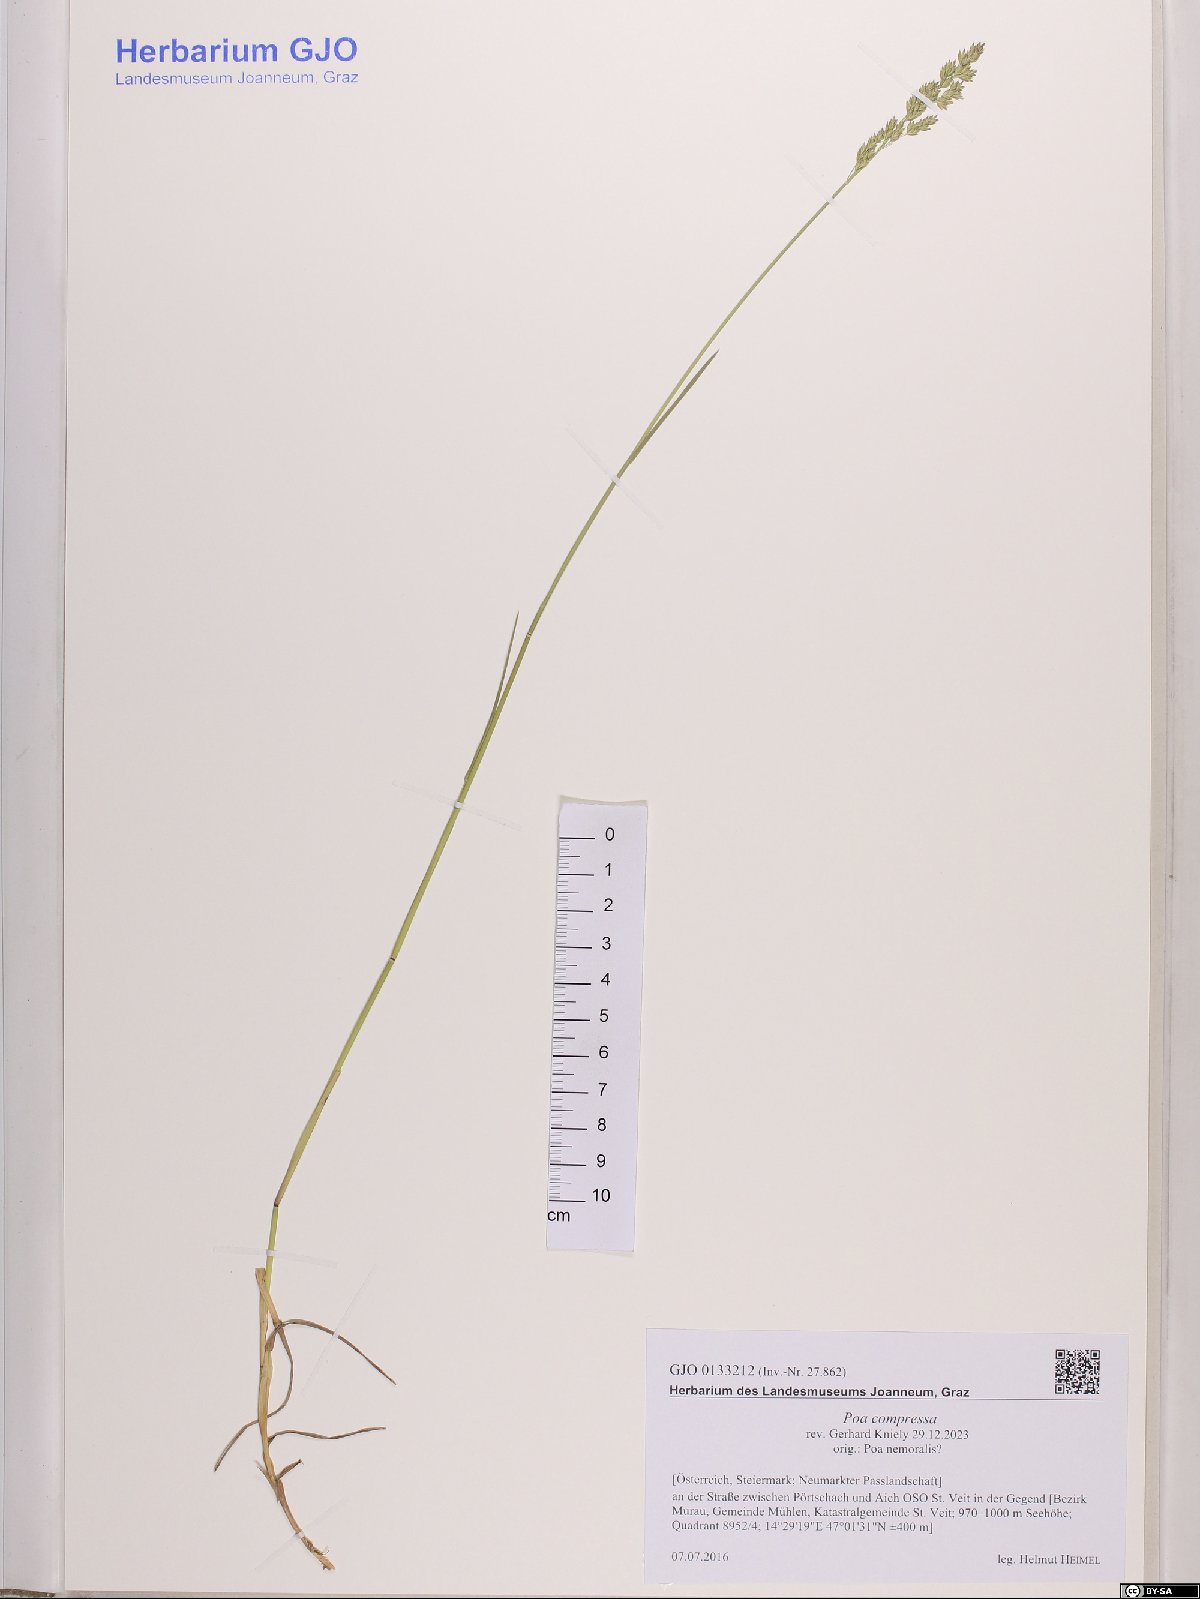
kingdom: Plantae
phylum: Tracheophyta
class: Liliopsida
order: Poales
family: Poaceae
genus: Poa
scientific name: Poa compressa
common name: Canada bluegrass
